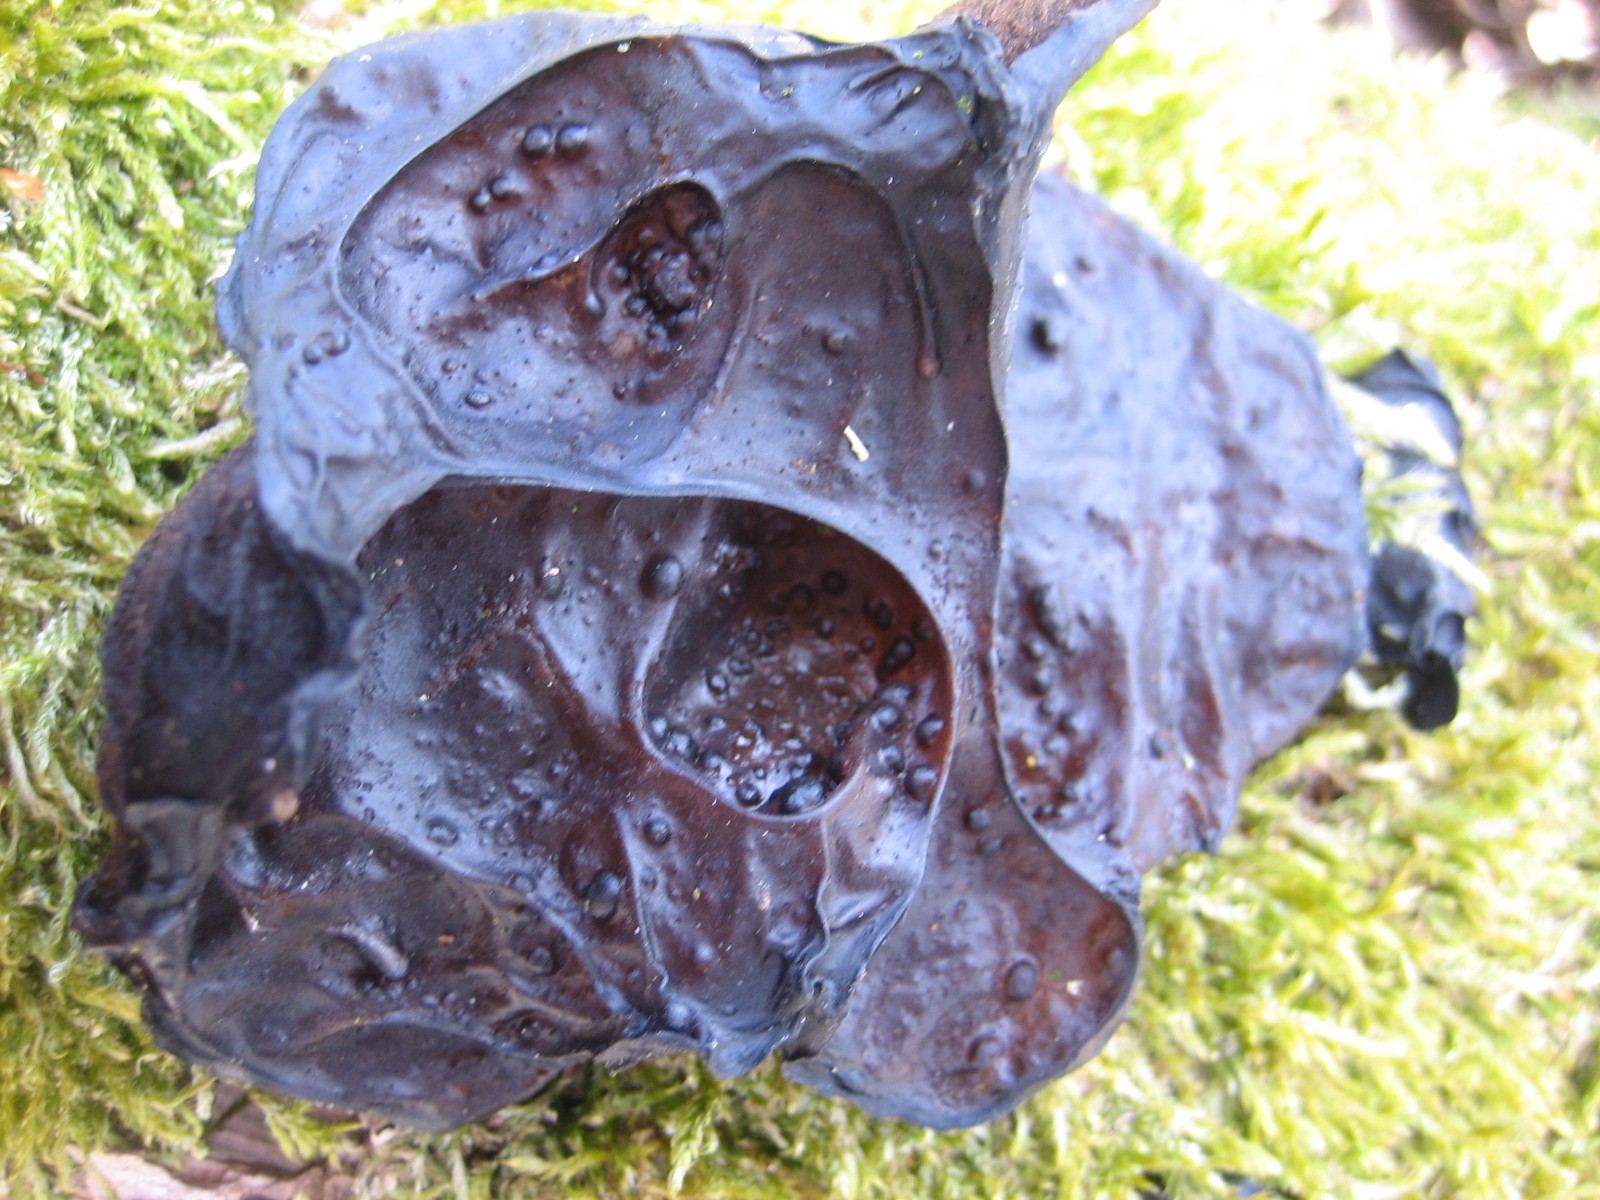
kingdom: Fungi
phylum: Basidiomycota
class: Agaricomycetes
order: Auriculariales
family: Auriculariaceae
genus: Exidia
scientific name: Exidia glandulosa
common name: ege-bævretop
